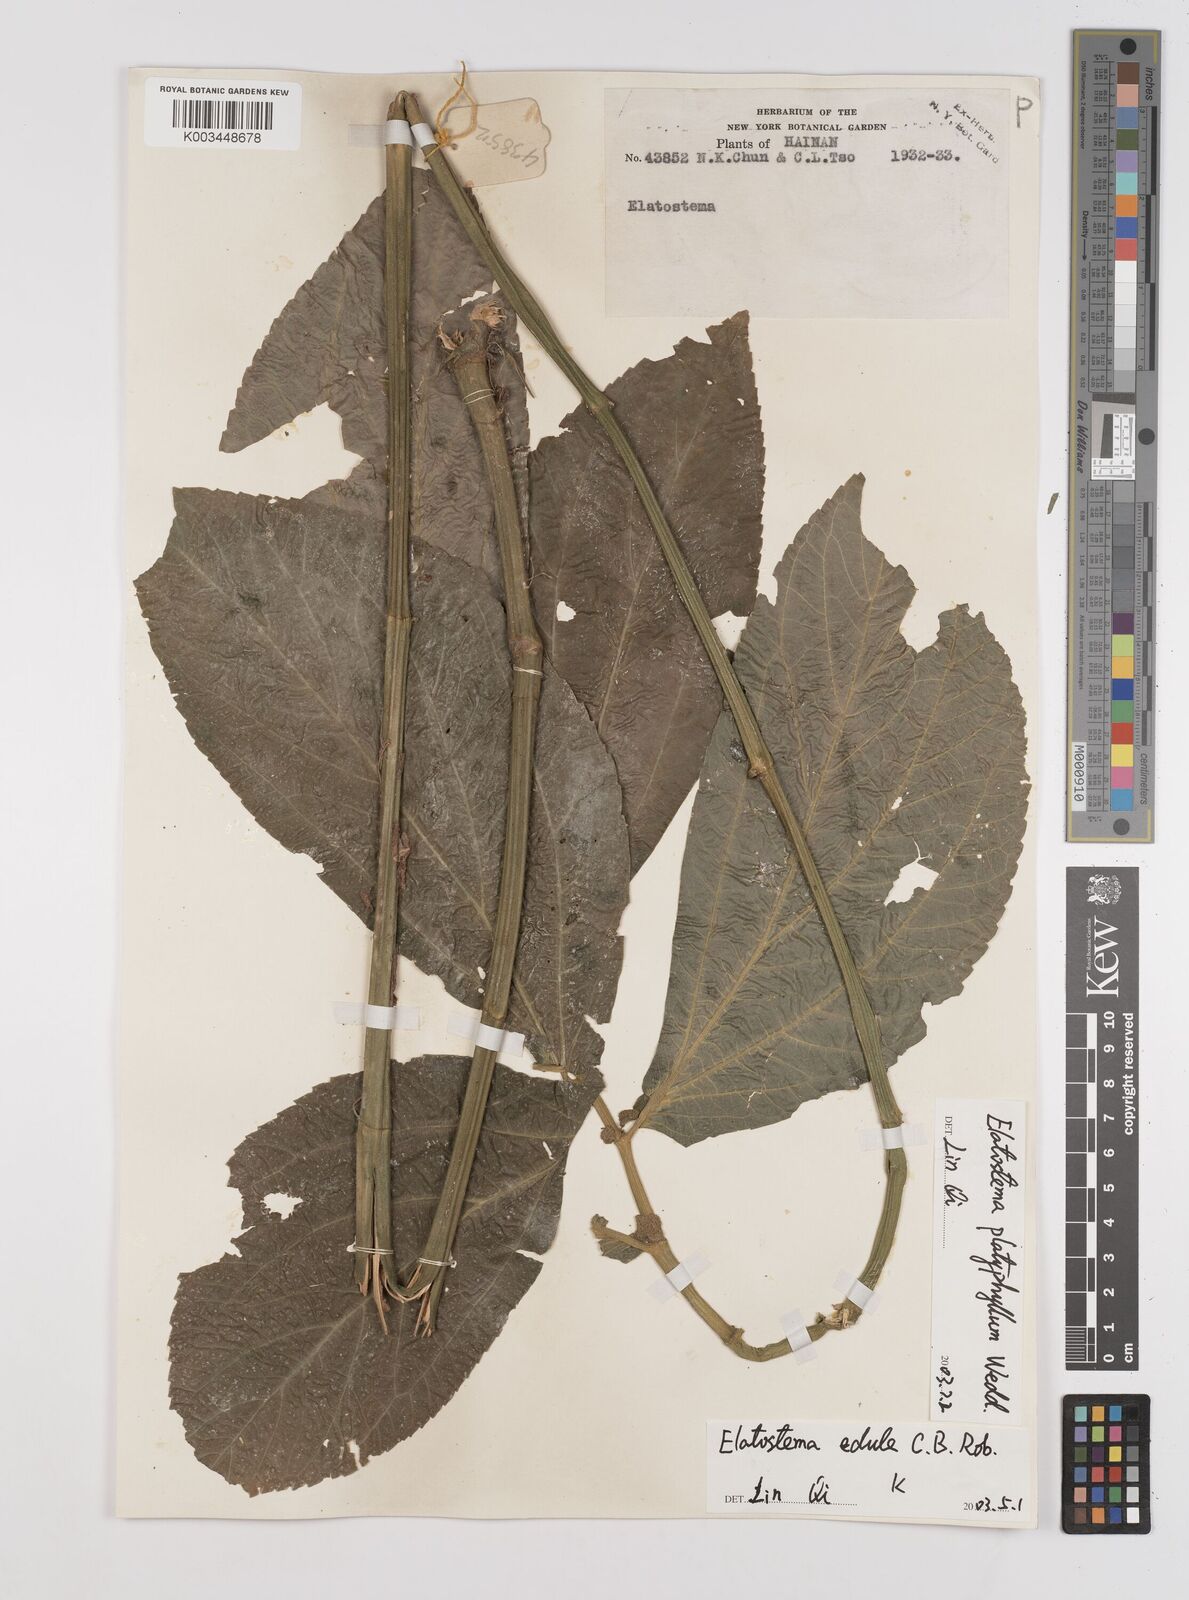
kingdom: Plantae
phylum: Tracheophyta
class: Magnoliopsida
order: Rosales
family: Urticaceae
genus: Elatostema
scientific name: Elatostema platyphyllum
